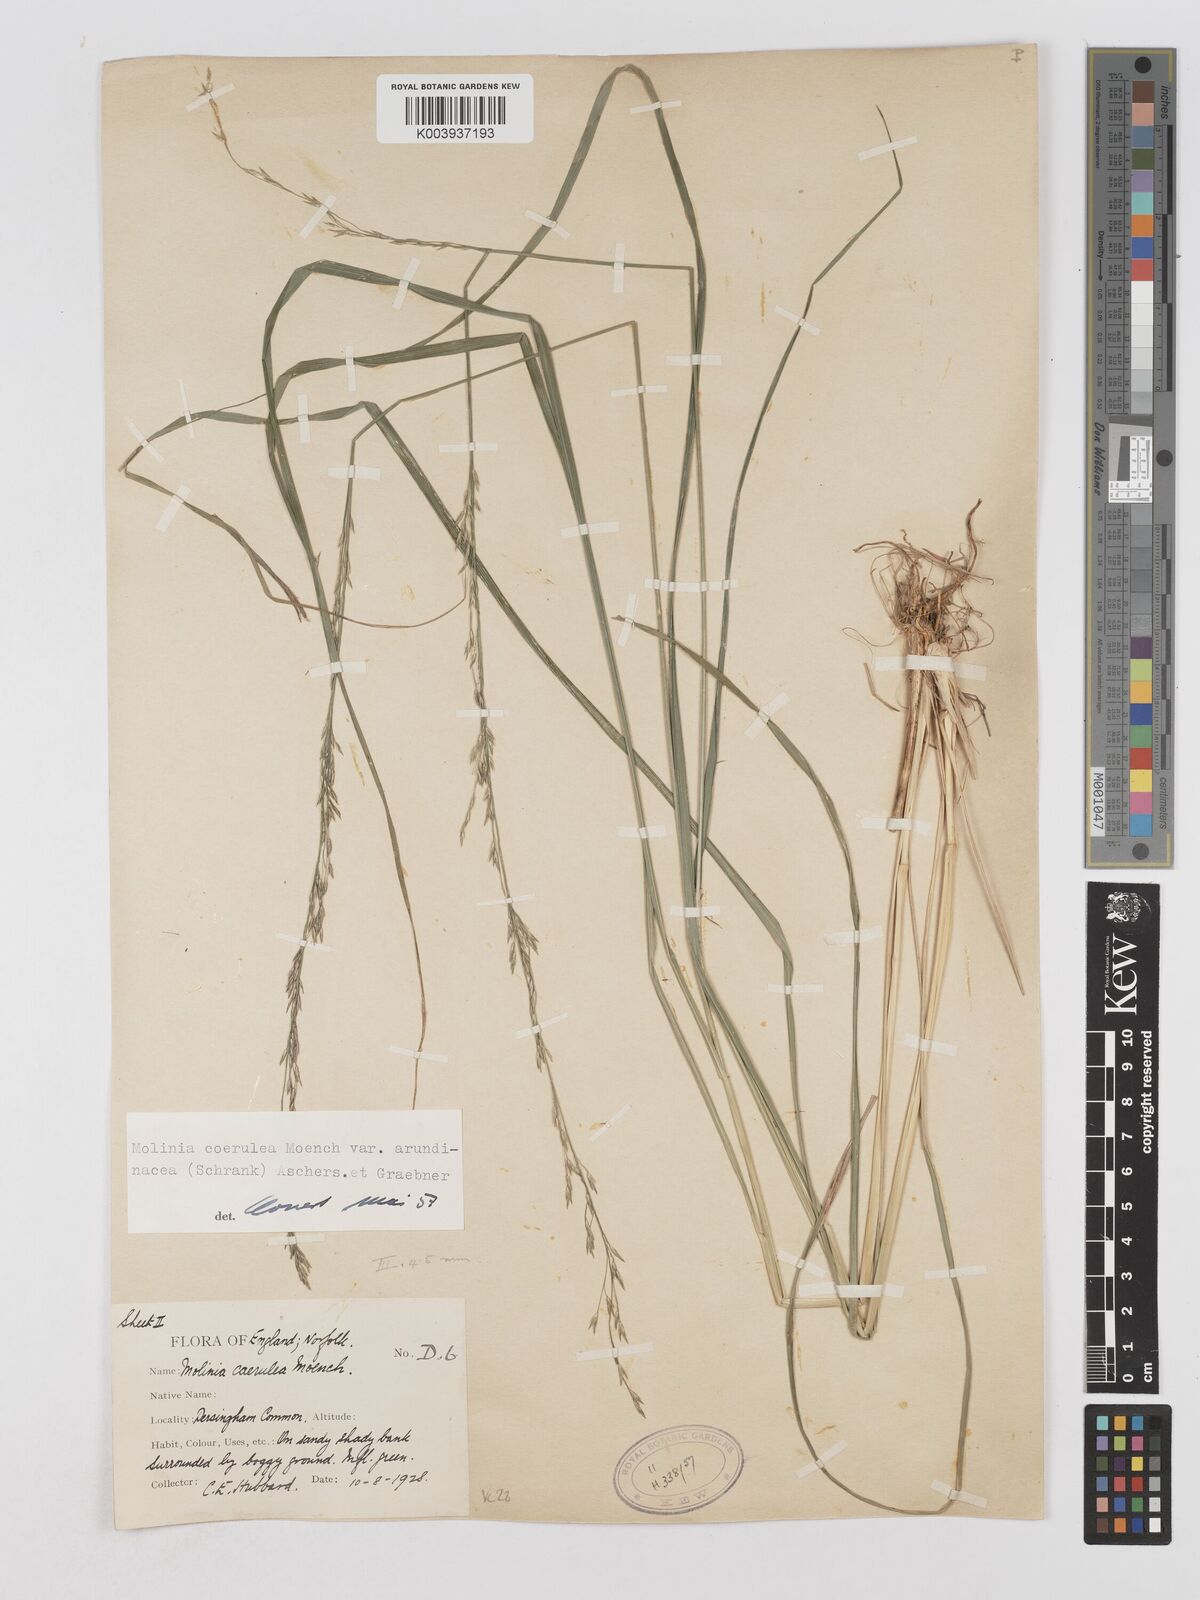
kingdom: Plantae
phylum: Tracheophyta
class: Liliopsida
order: Poales
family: Poaceae
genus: Molinia
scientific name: Molinia caerulea
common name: Purple moor-grass
